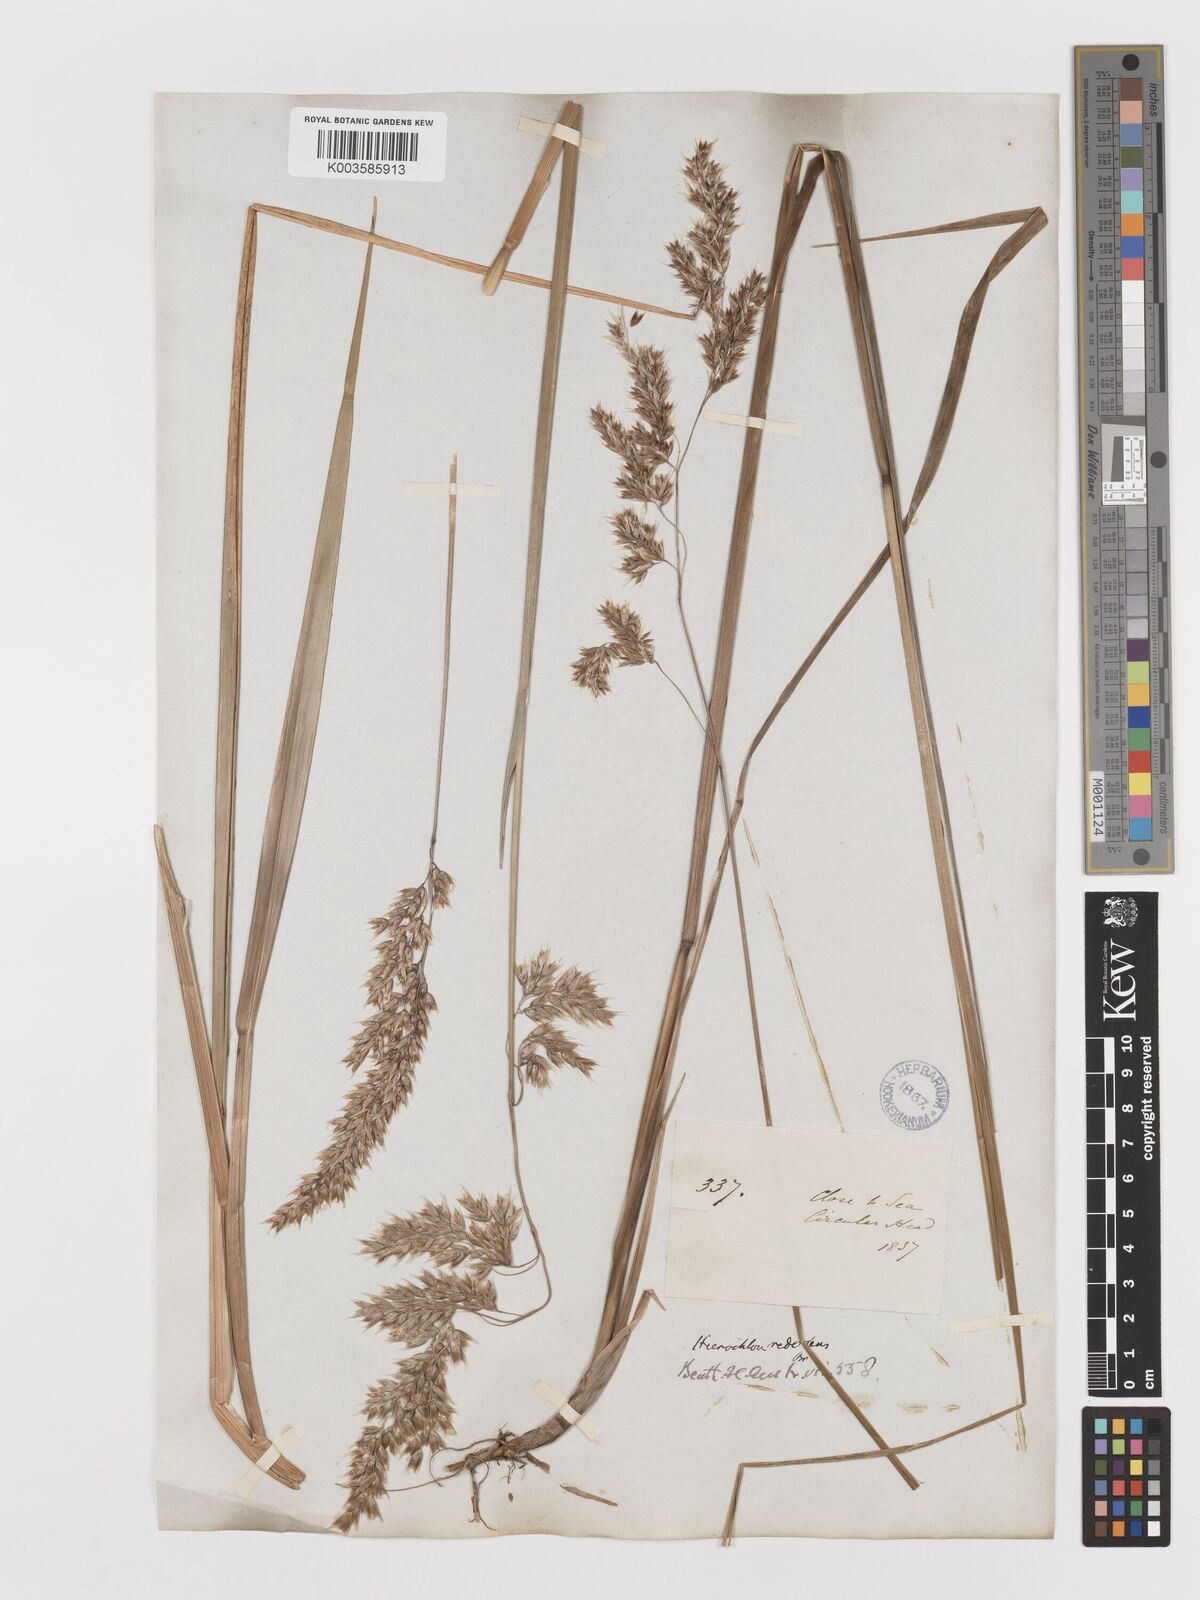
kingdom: Plantae
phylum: Tracheophyta
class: Liliopsida
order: Poales
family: Poaceae
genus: Anthoxanthum
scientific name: Anthoxanthum redolens
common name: Sweet holy grass
